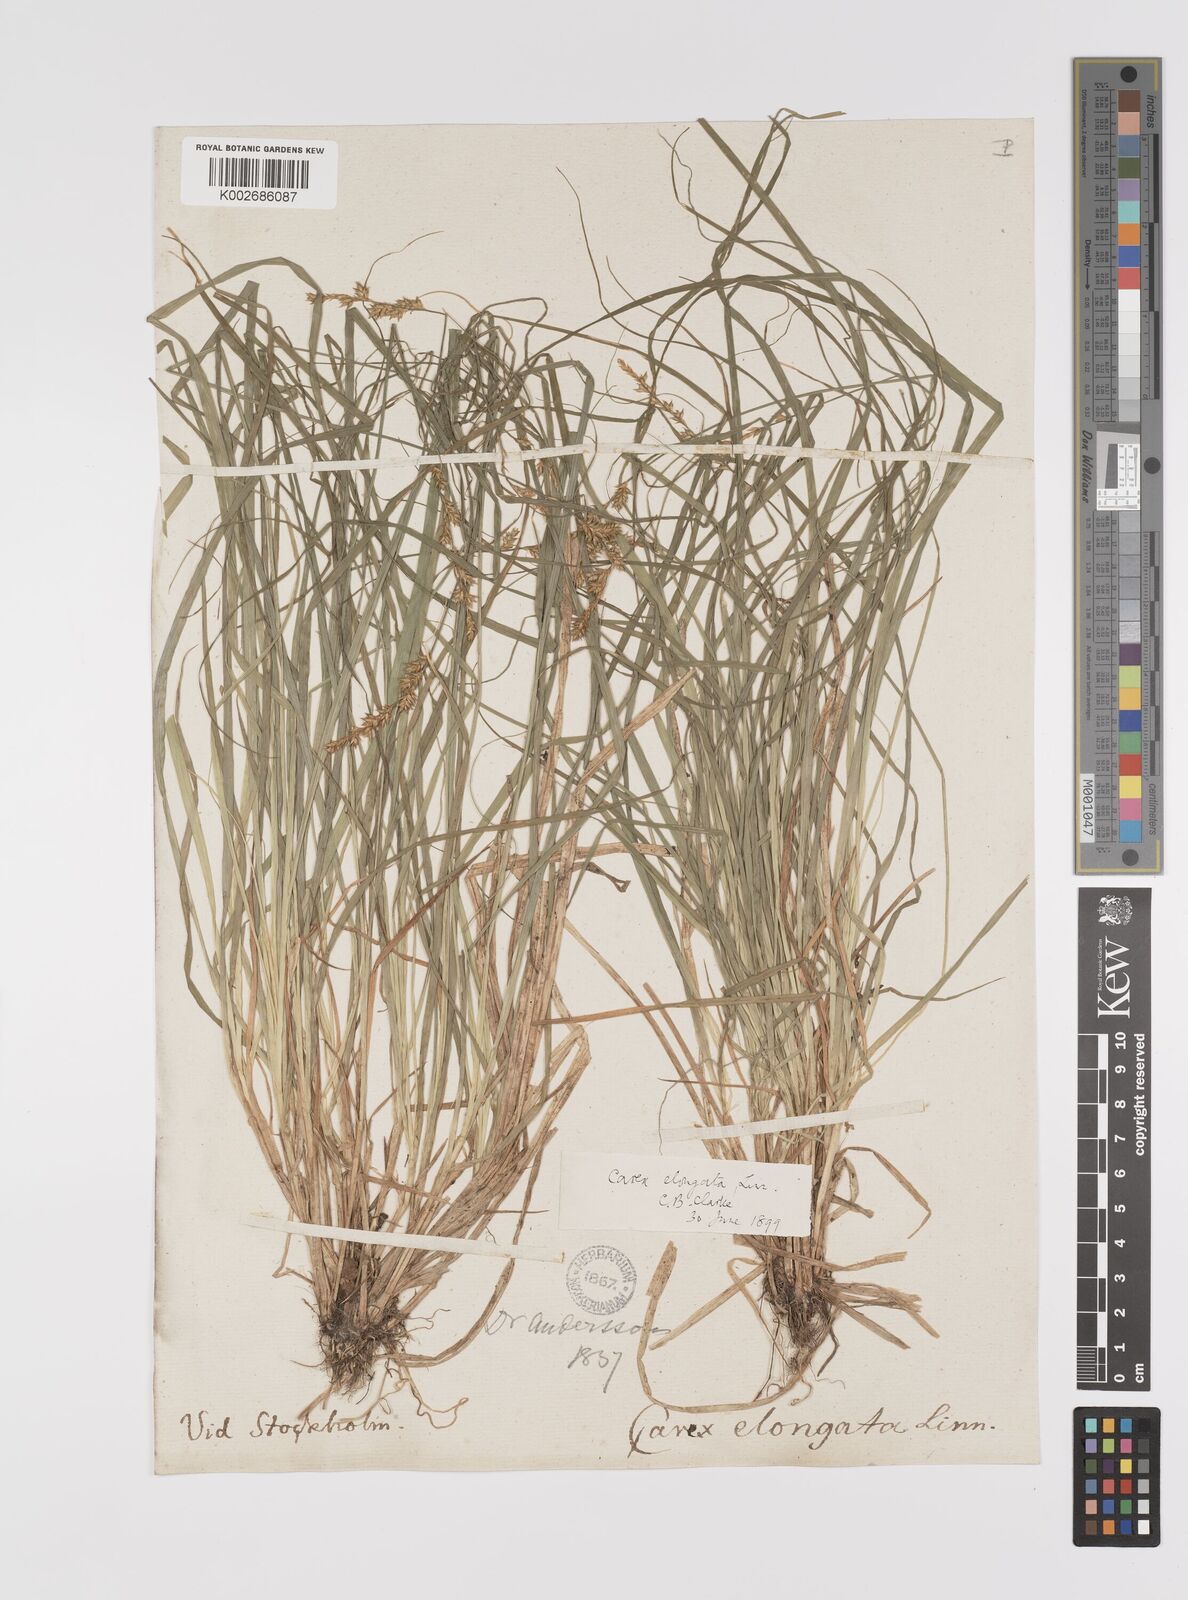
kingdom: Plantae
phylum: Tracheophyta
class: Liliopsida
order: Poales
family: Cyperaceae
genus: Carex
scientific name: Carex elongata
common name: Elongated sedge
